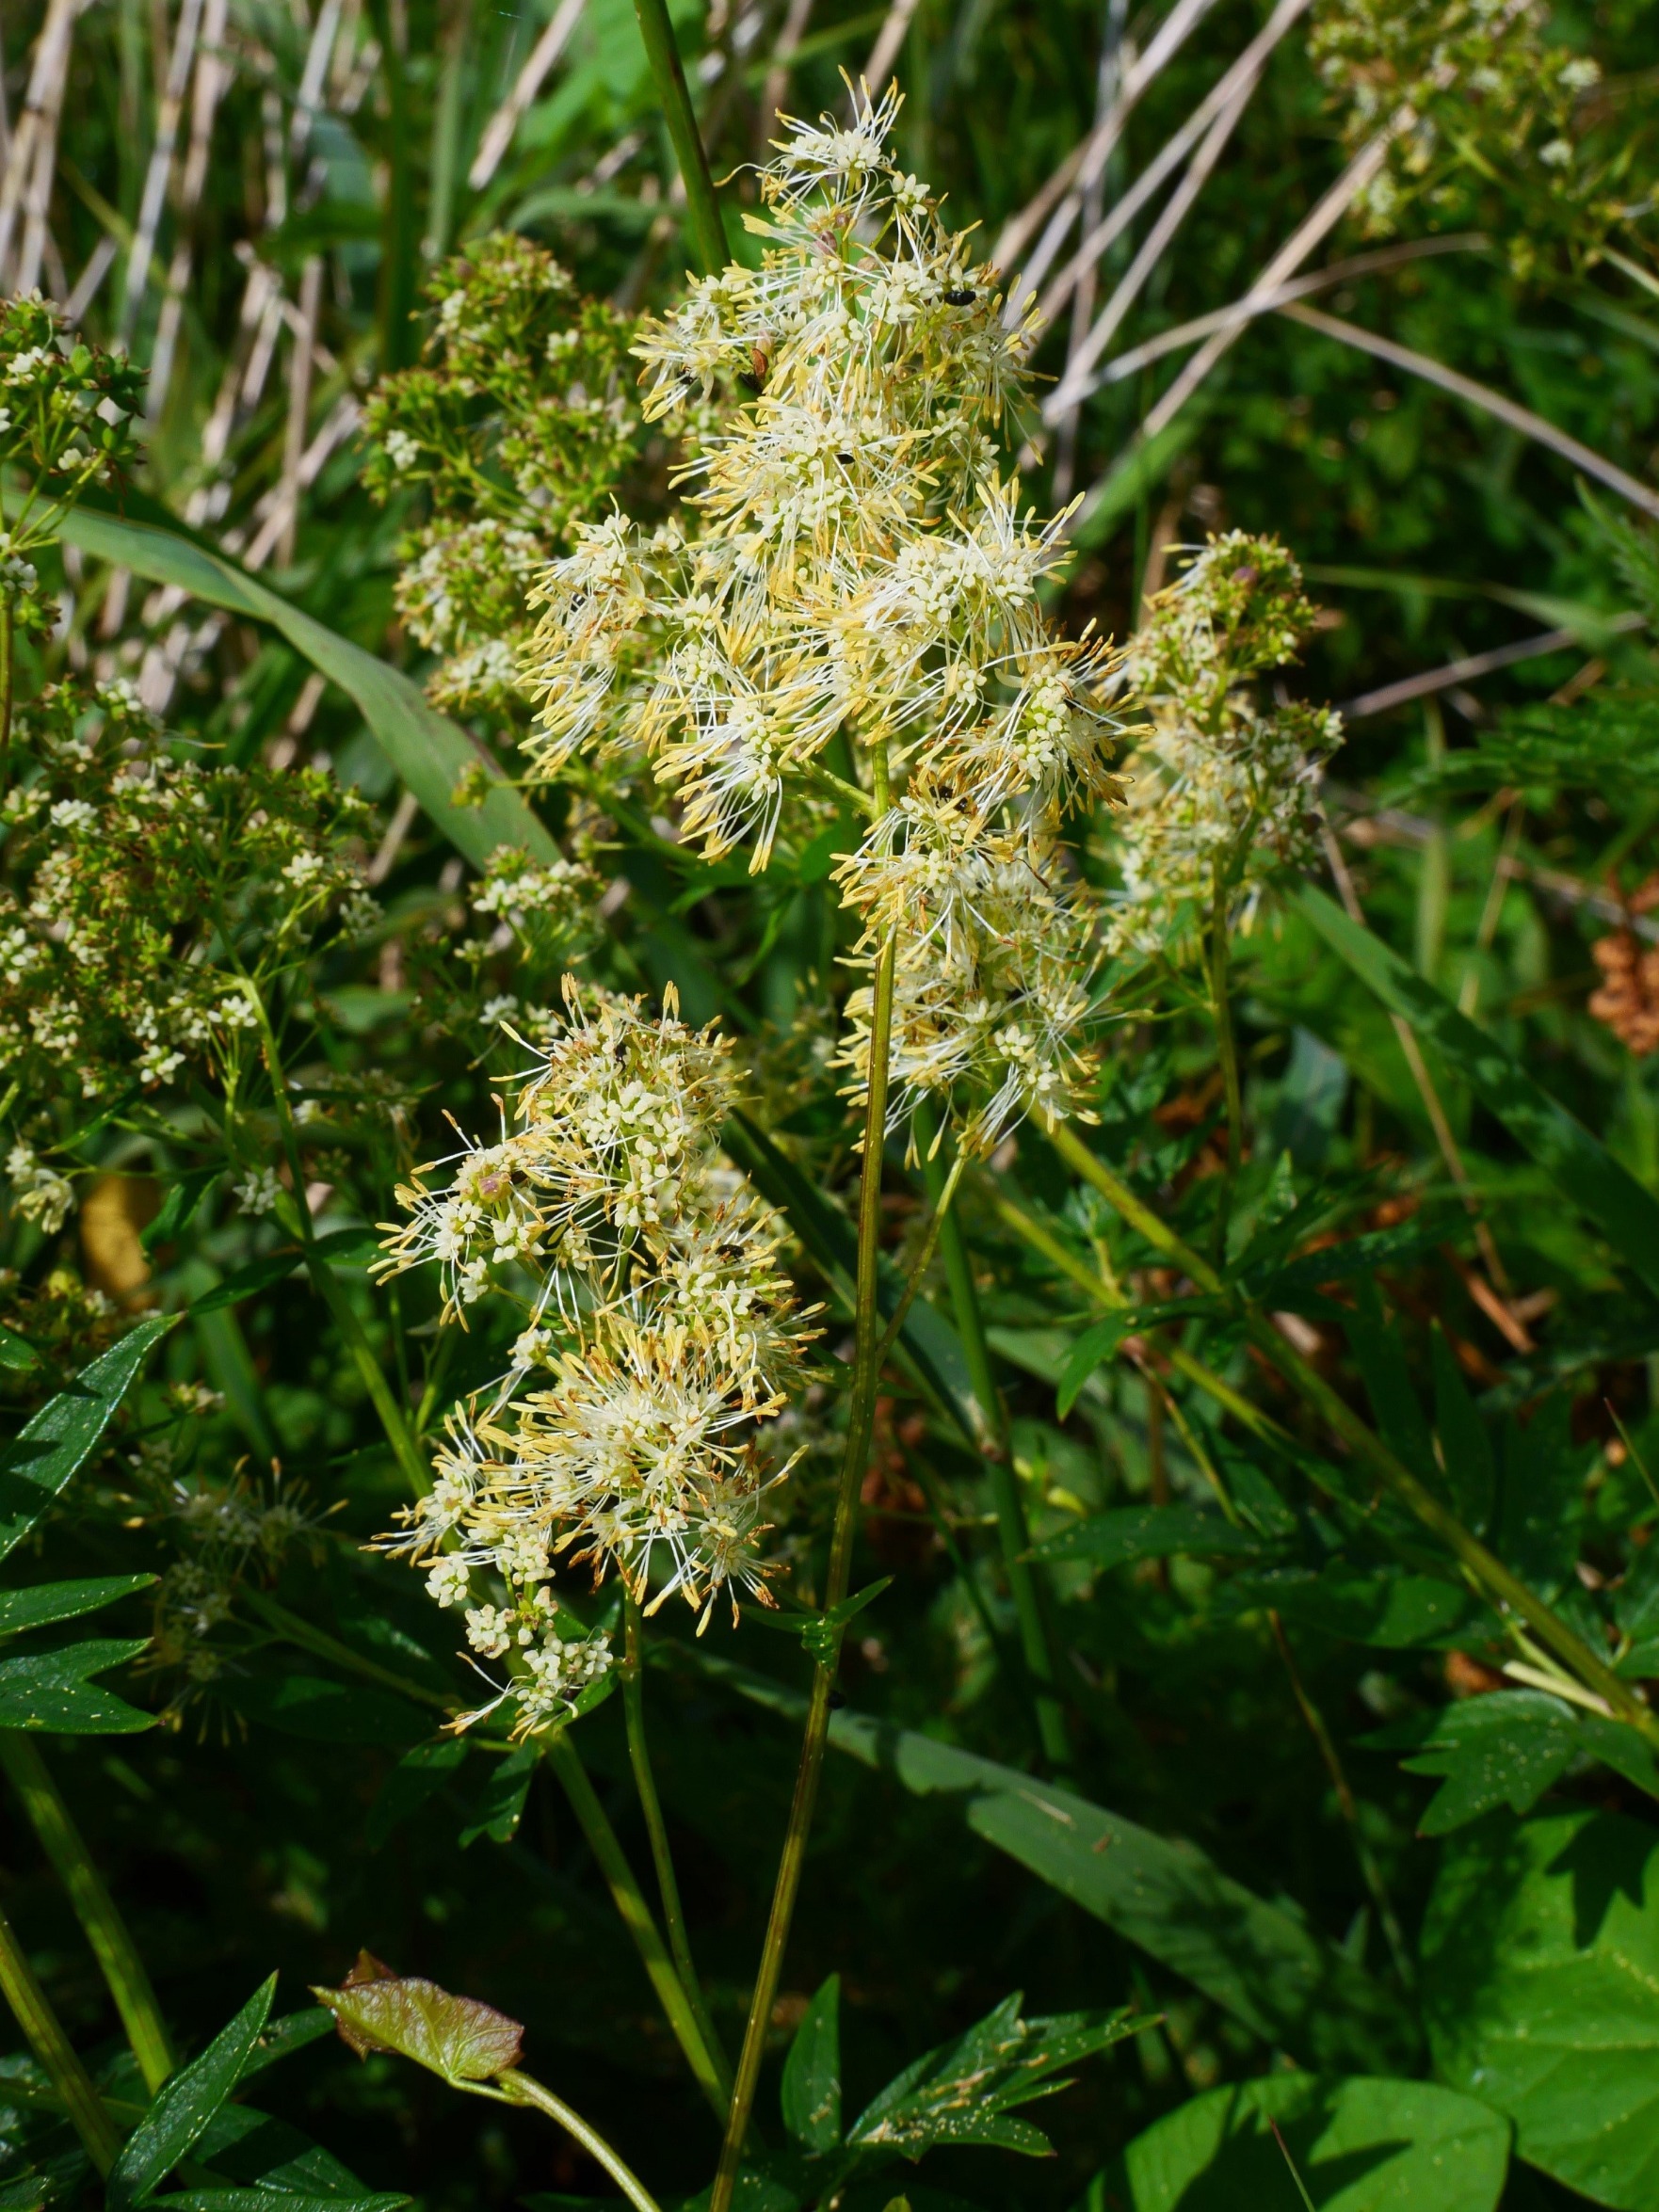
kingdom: Plantae
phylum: Tracheophyta
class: Magnoliopsida
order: Ranunculales
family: Ranunculaceae
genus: Thalictrum
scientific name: Thalictrum flavum
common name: Gul frøstjerne
